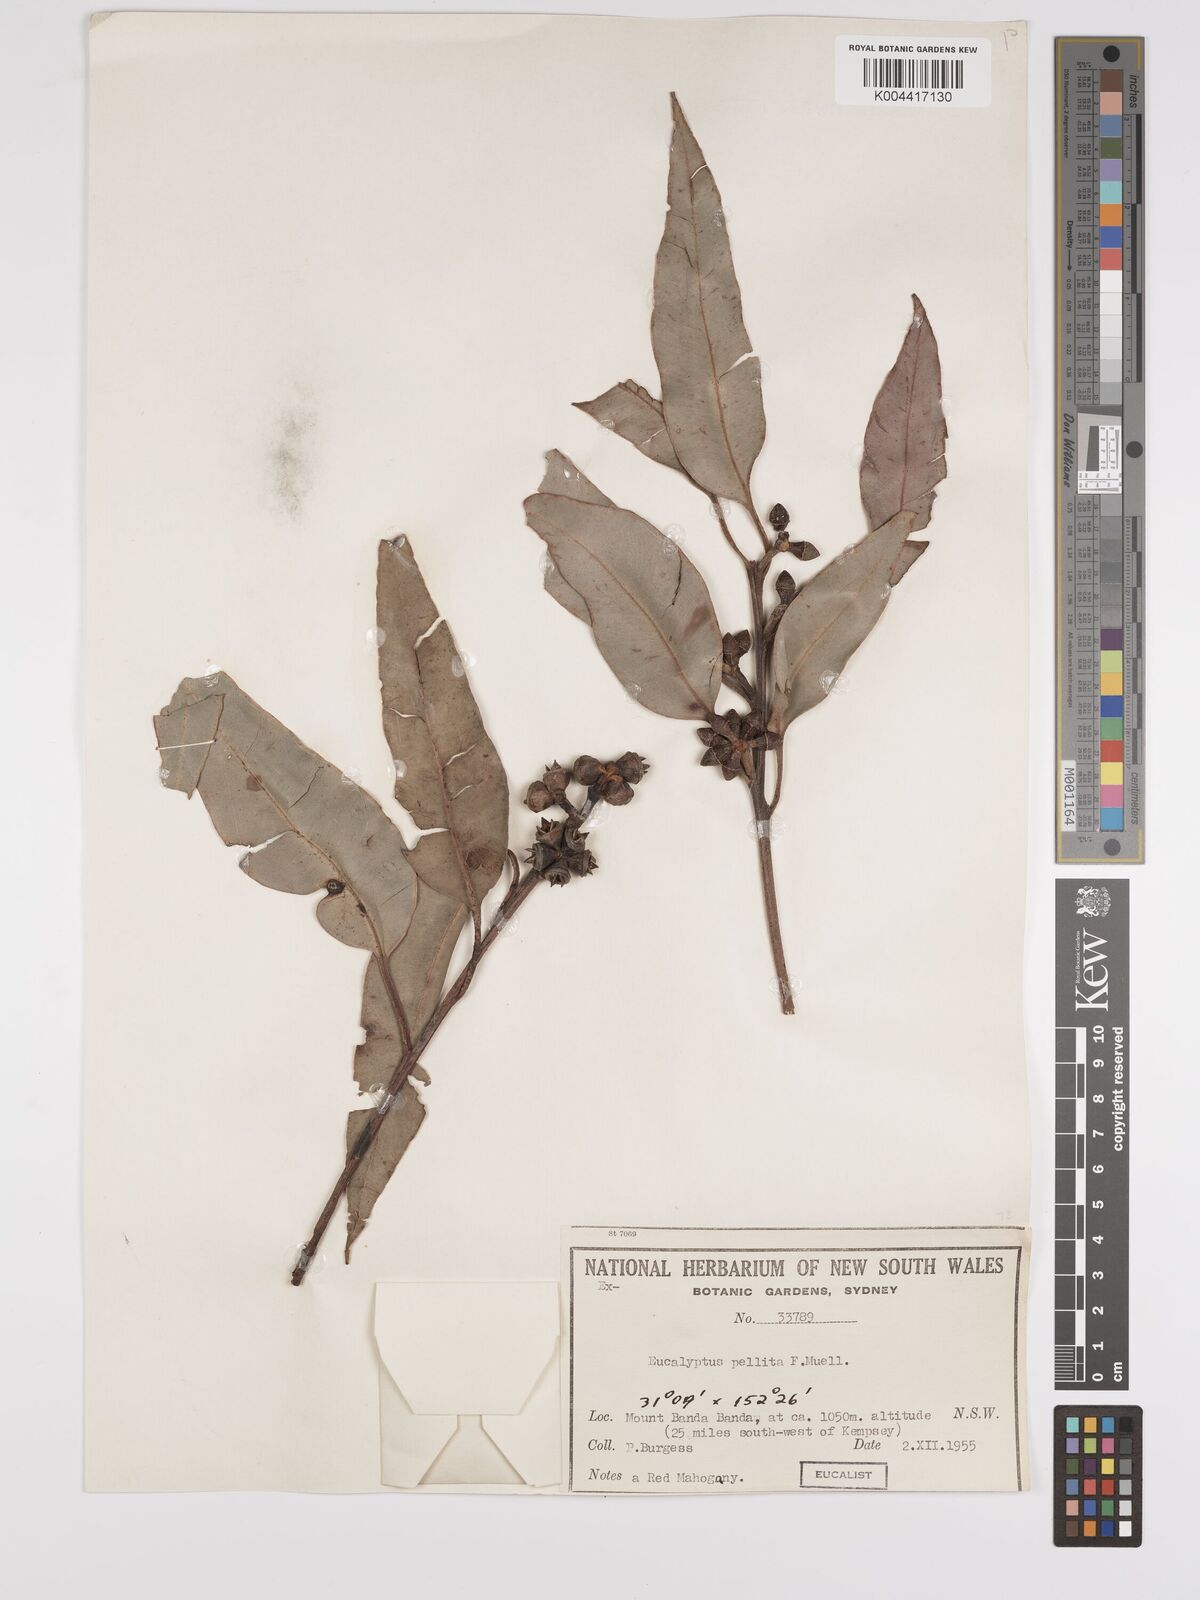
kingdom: Plantae
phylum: Tracheophyta
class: Magnoliopsida
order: Myrtales
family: Myrtaceae
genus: Eucalyptus
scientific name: Eucalyptus pellita
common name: Large-fruited-red-mahogany
